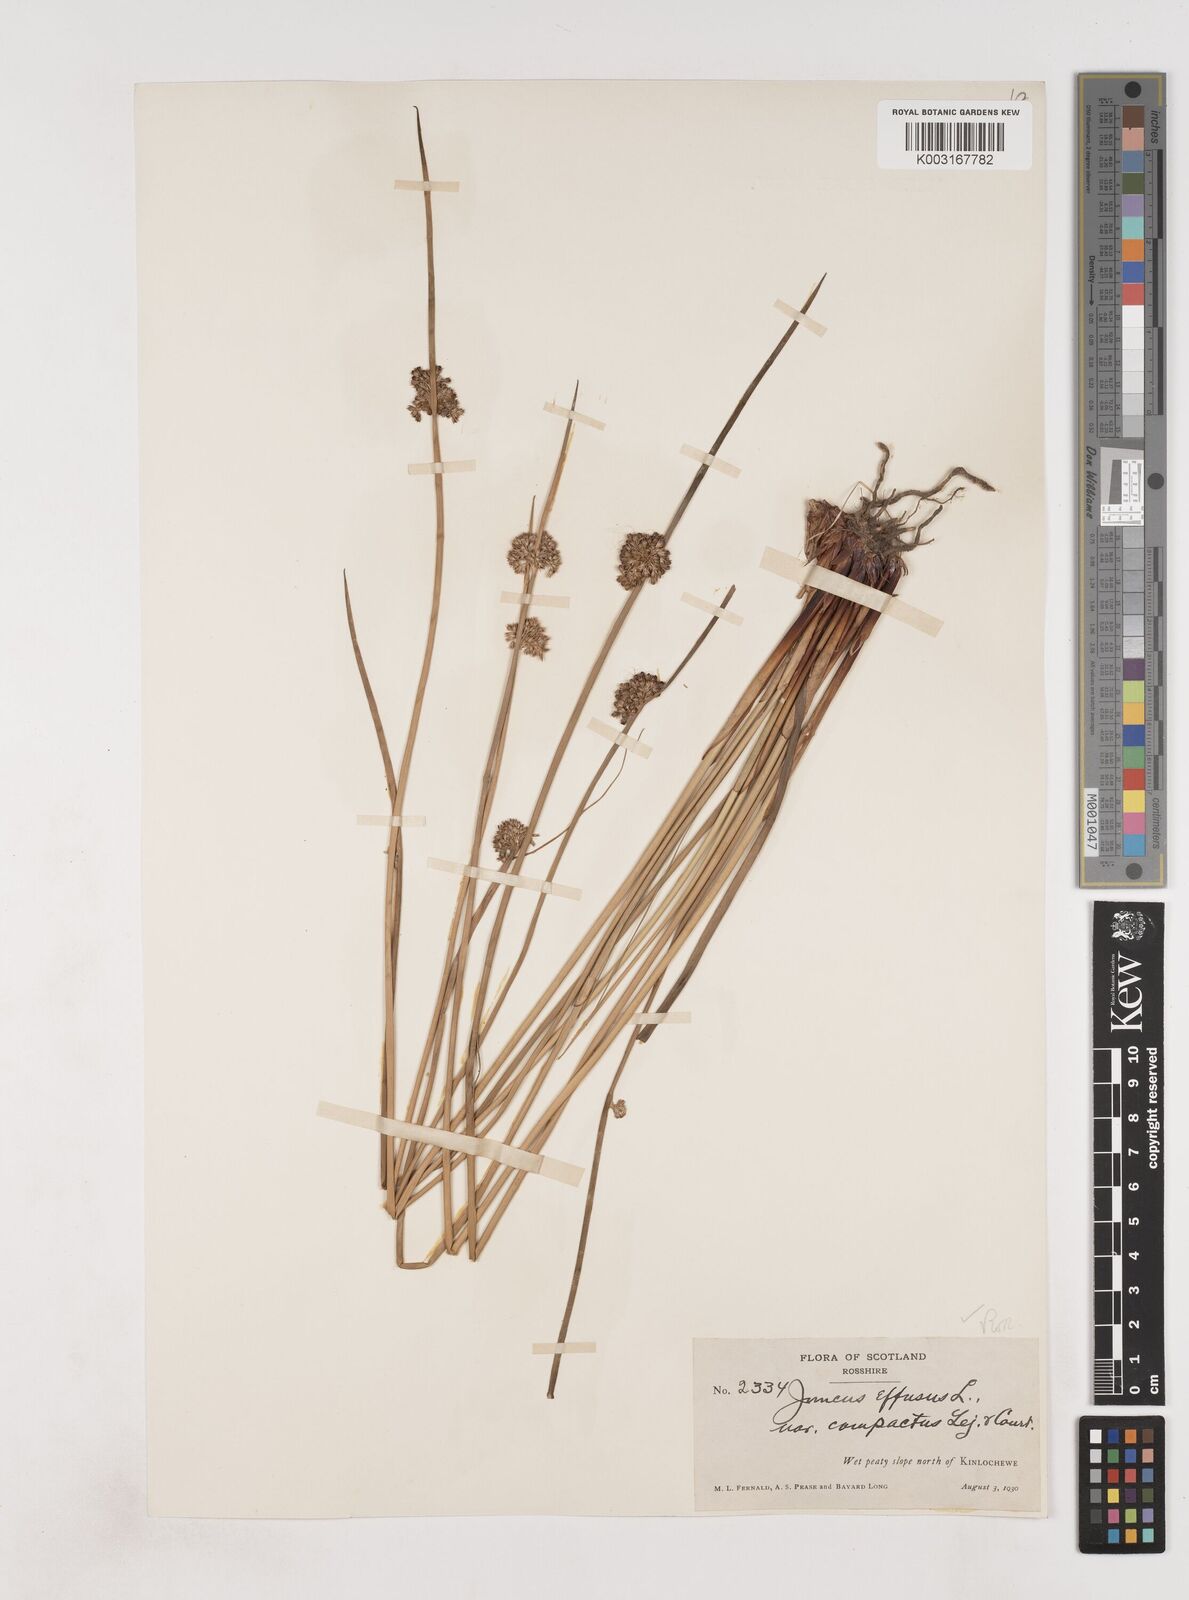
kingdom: Plantae
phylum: Tracheophyta
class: Liliopsida
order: Poales
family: Juncaceae
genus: Juncus
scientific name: Juncus effusus
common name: Soft rush
